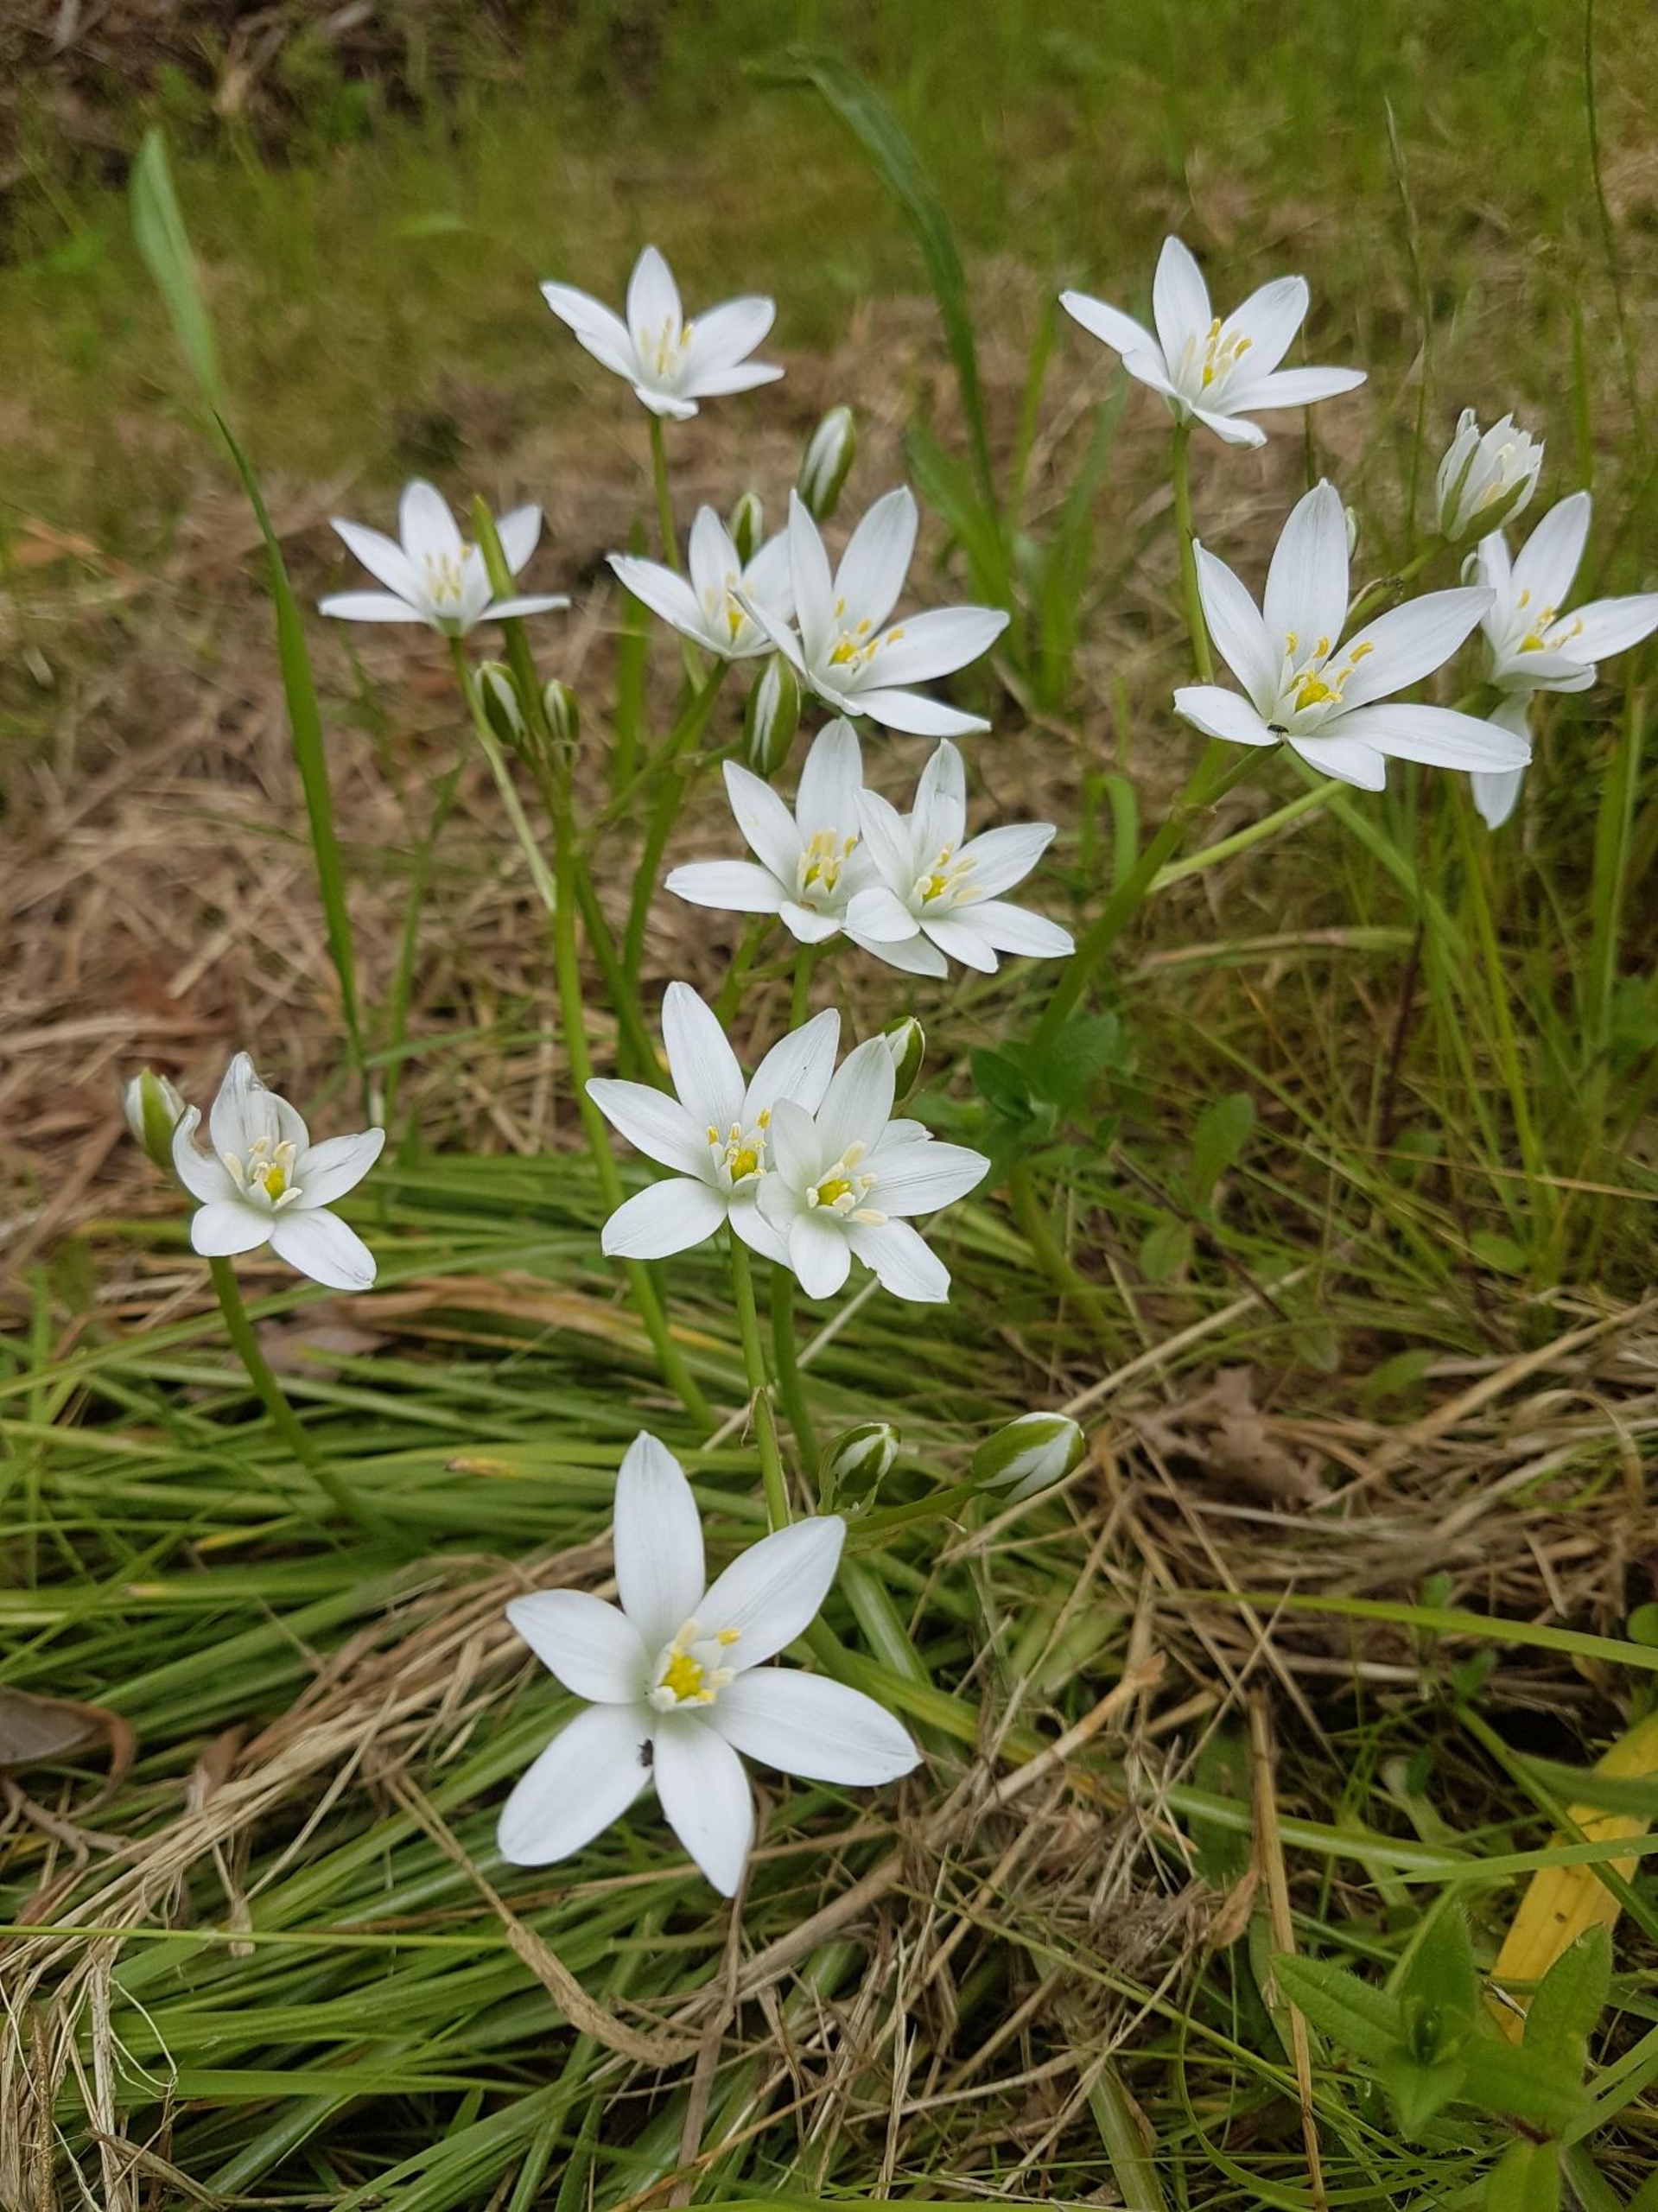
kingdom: Plantae
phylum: Tracheophyta
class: Liliopsida
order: Asparagales
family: Asparagaceae
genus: Ornithogalum
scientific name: Ornithogalum umbellatum
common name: Kost-fuglemælk
